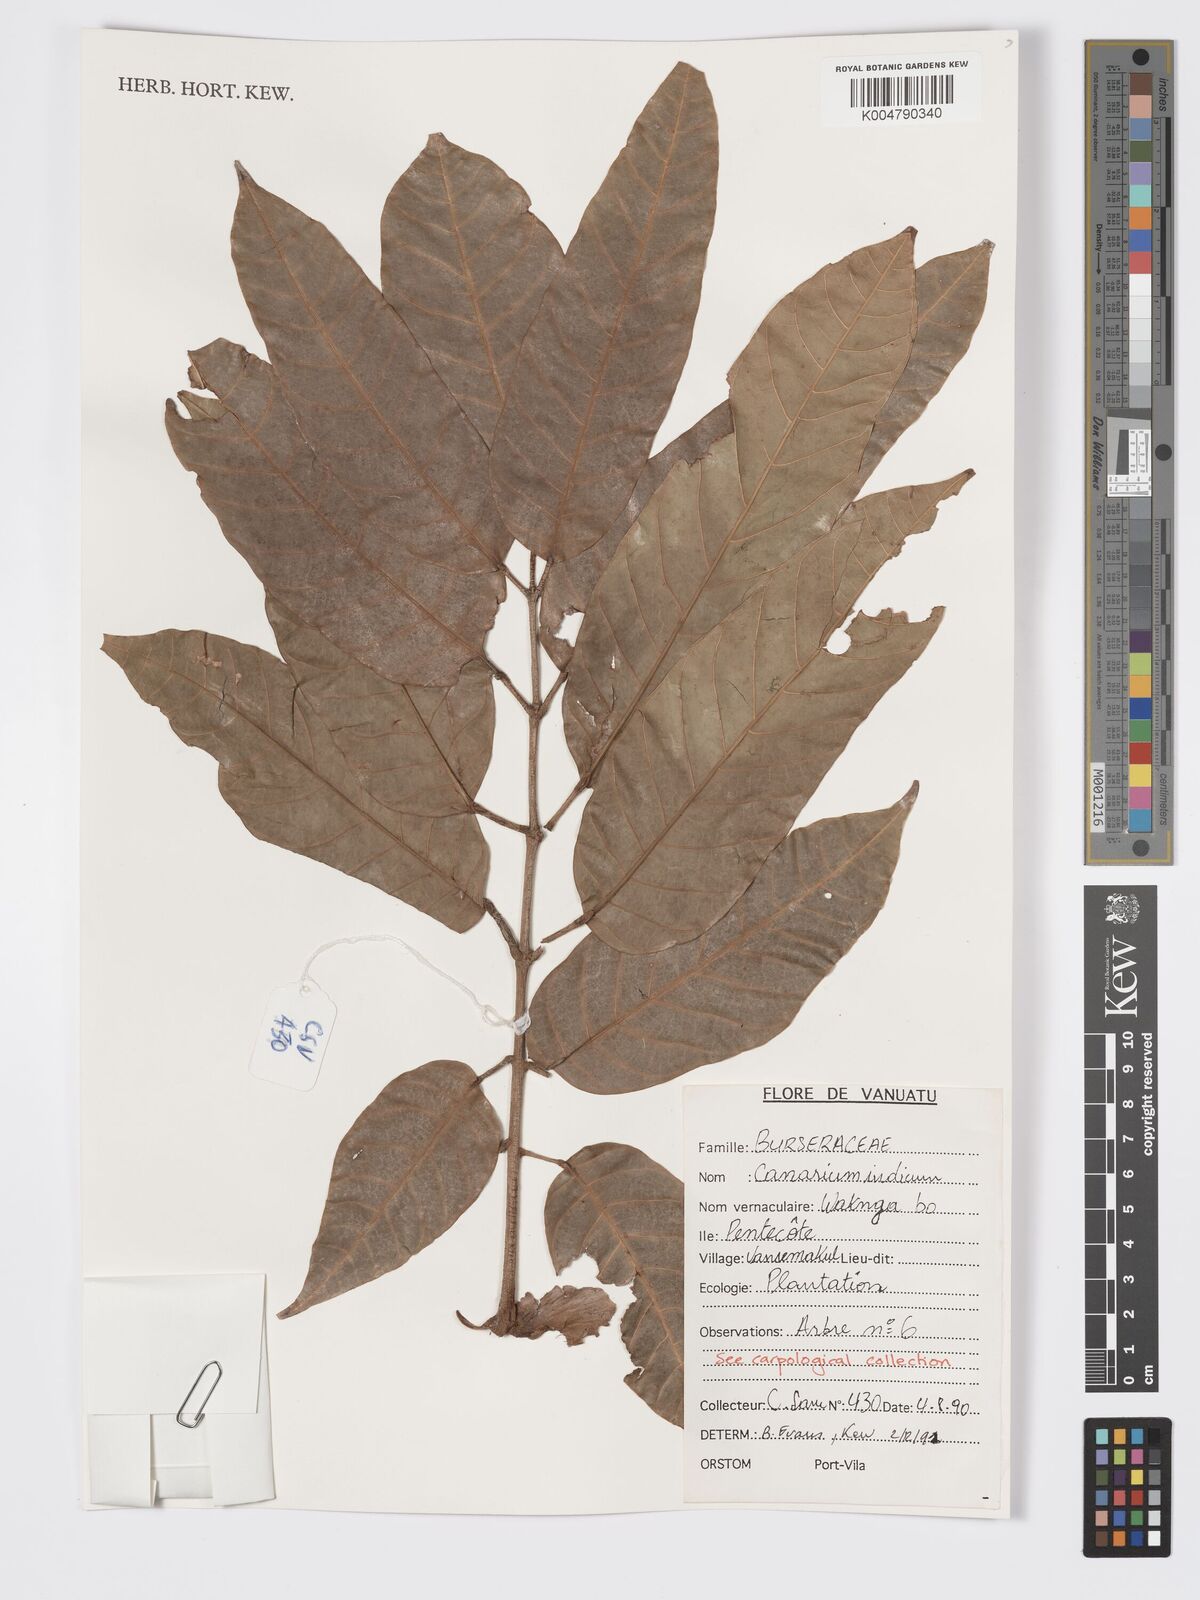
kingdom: Plantae
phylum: Tracheophyta
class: Magnoliopsida
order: Sapindales
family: Burseraceae
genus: Canarium
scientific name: Canarium indicum
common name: Canarium-nut
